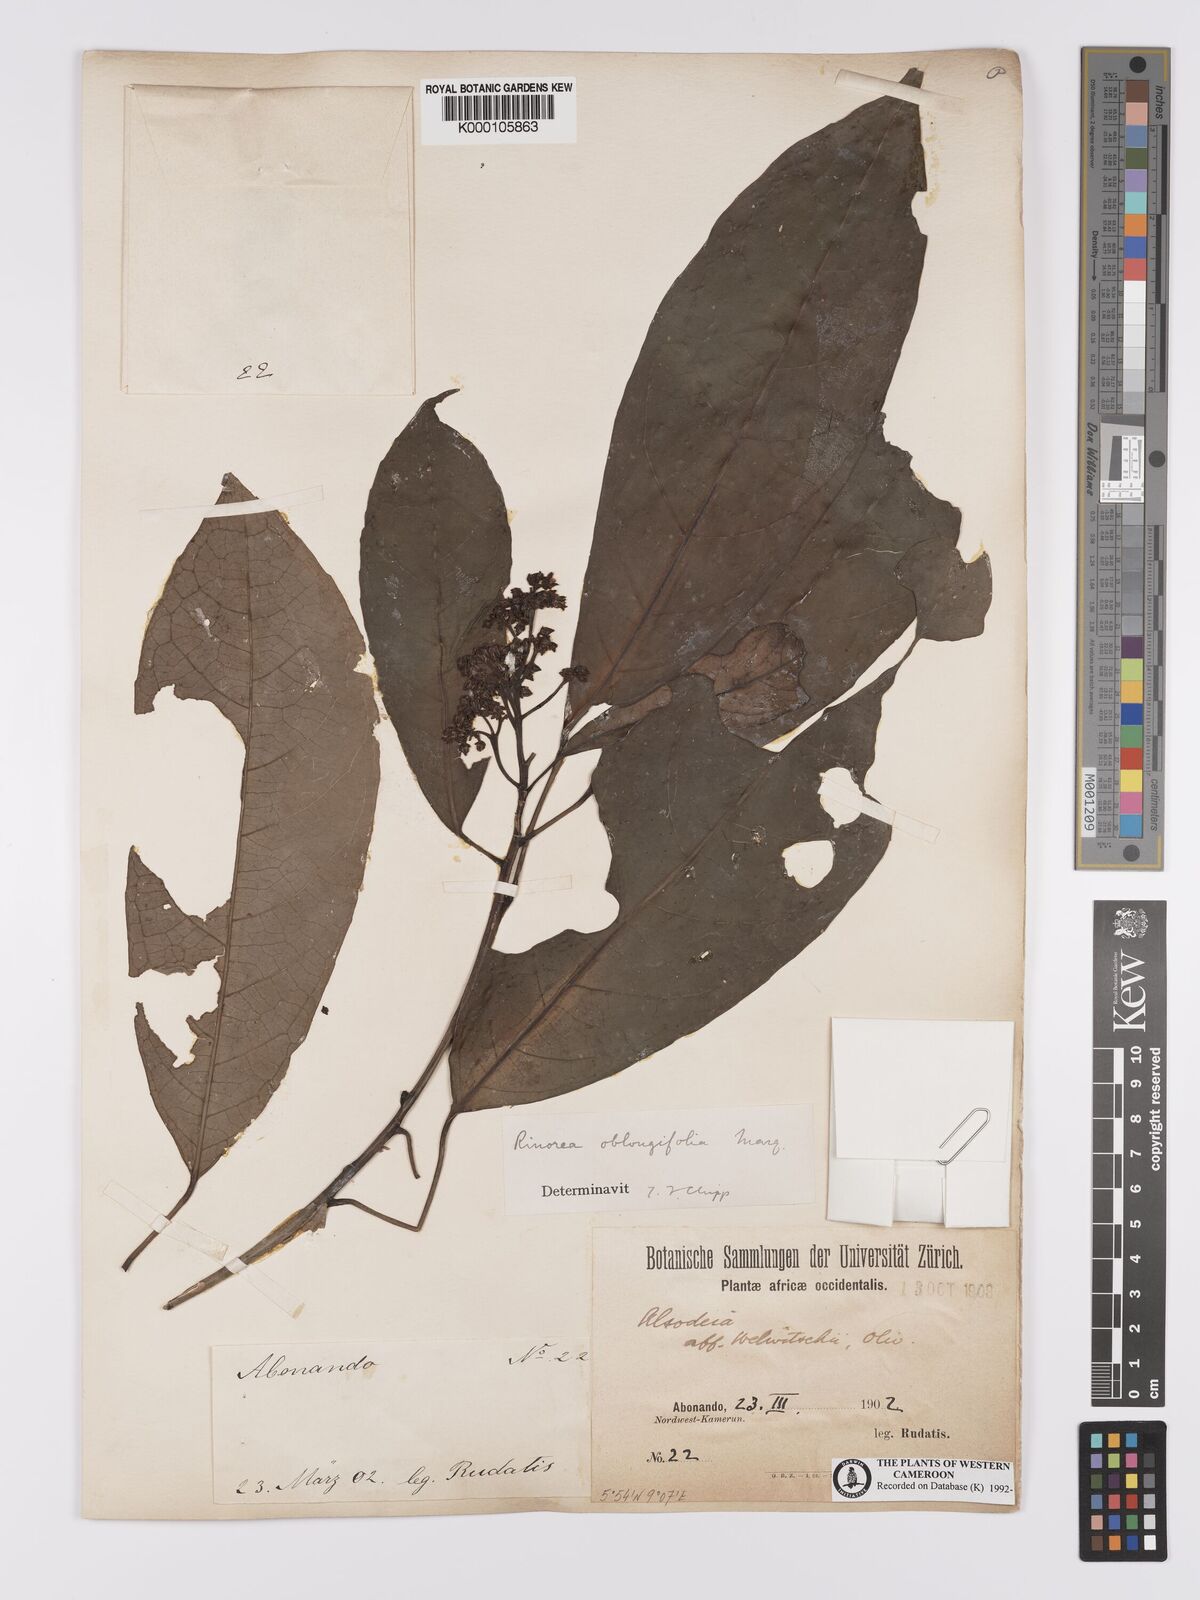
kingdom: Plantae
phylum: Tracheophyta
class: Magnoliopsida
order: Apiales
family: Pittosporaceae
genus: Marianthus
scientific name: Marianthus coeruleopunctatus
